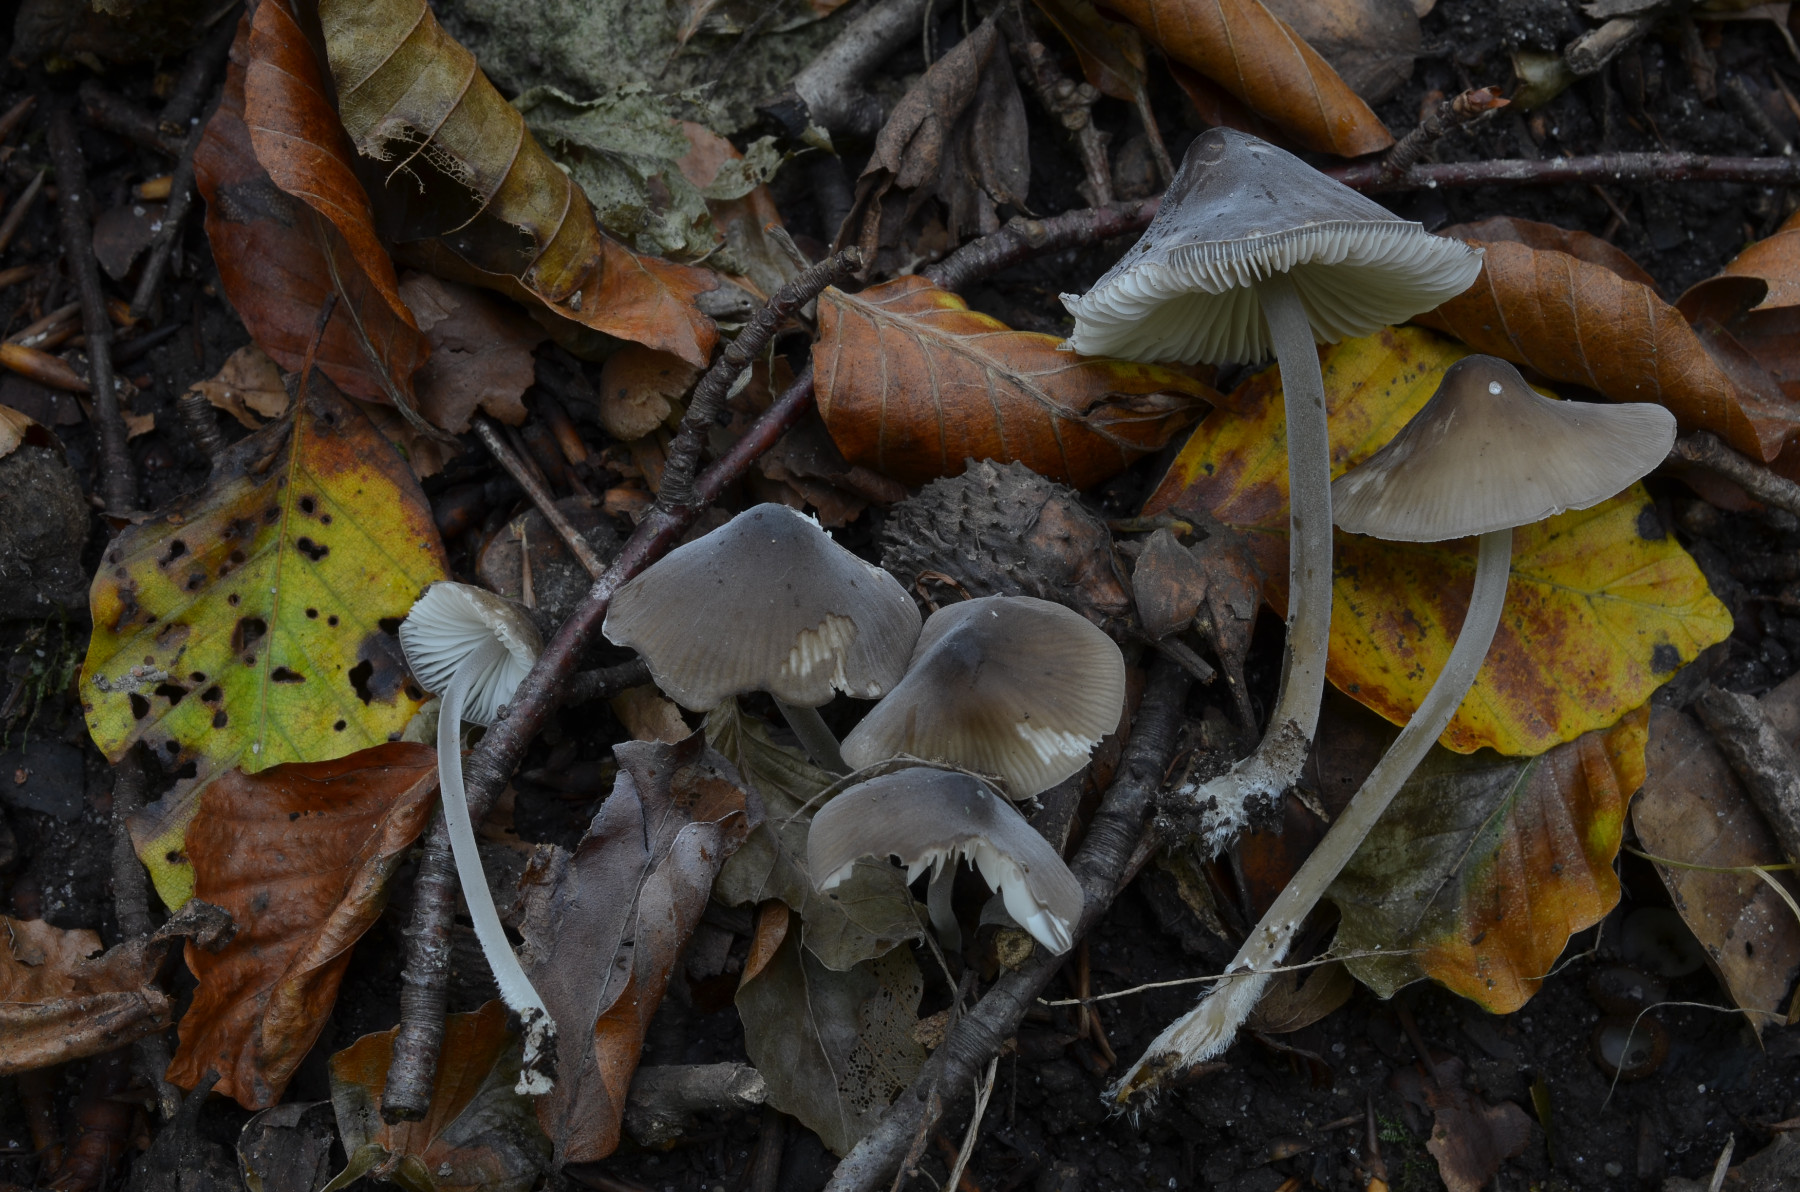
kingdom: Fungi
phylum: Basidiomycota
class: Agaricomycetes
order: Agaricales
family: Tricholomataceae
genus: Mycenella
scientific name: Mycenella trachyspora
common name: rødprikket dughat
